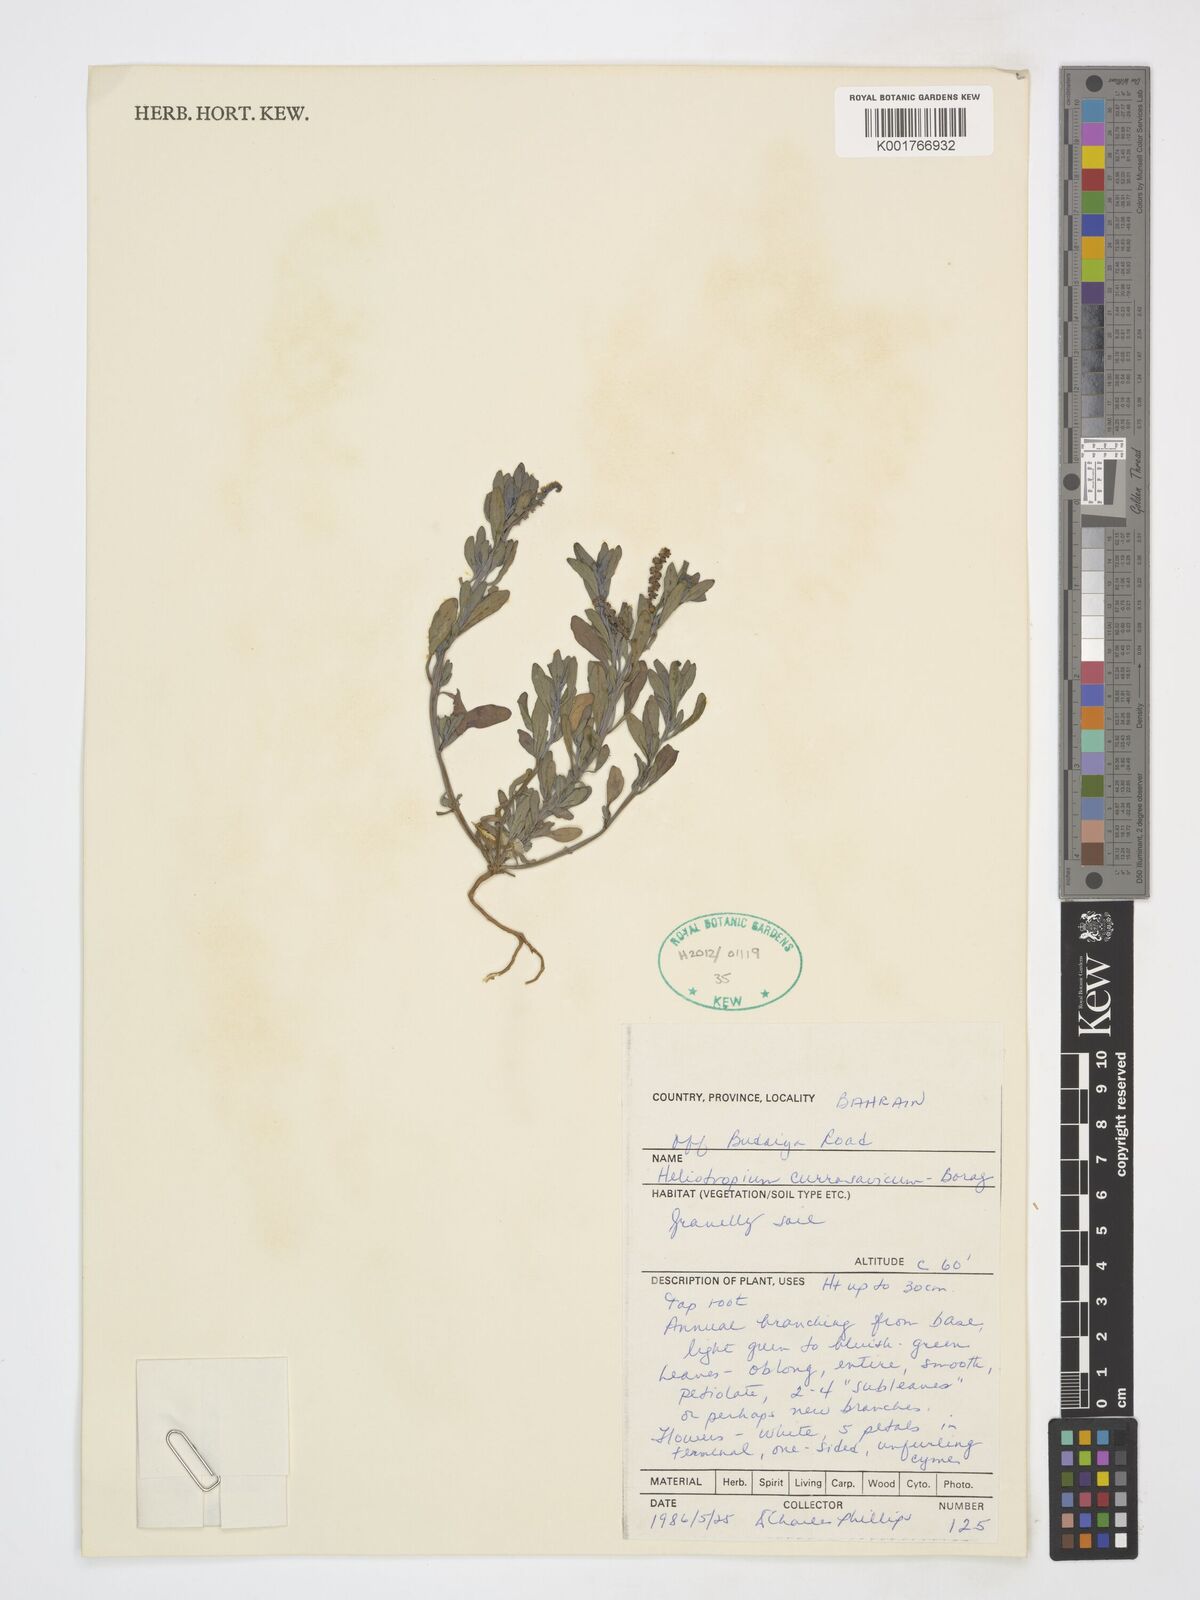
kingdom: Plantae
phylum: Tracheophyta
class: Magnoliopsida
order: Boraginales
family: Heliotropiaceae
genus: Heliotropium
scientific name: Heliotropium curassavicum
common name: Seaside heliotrope
